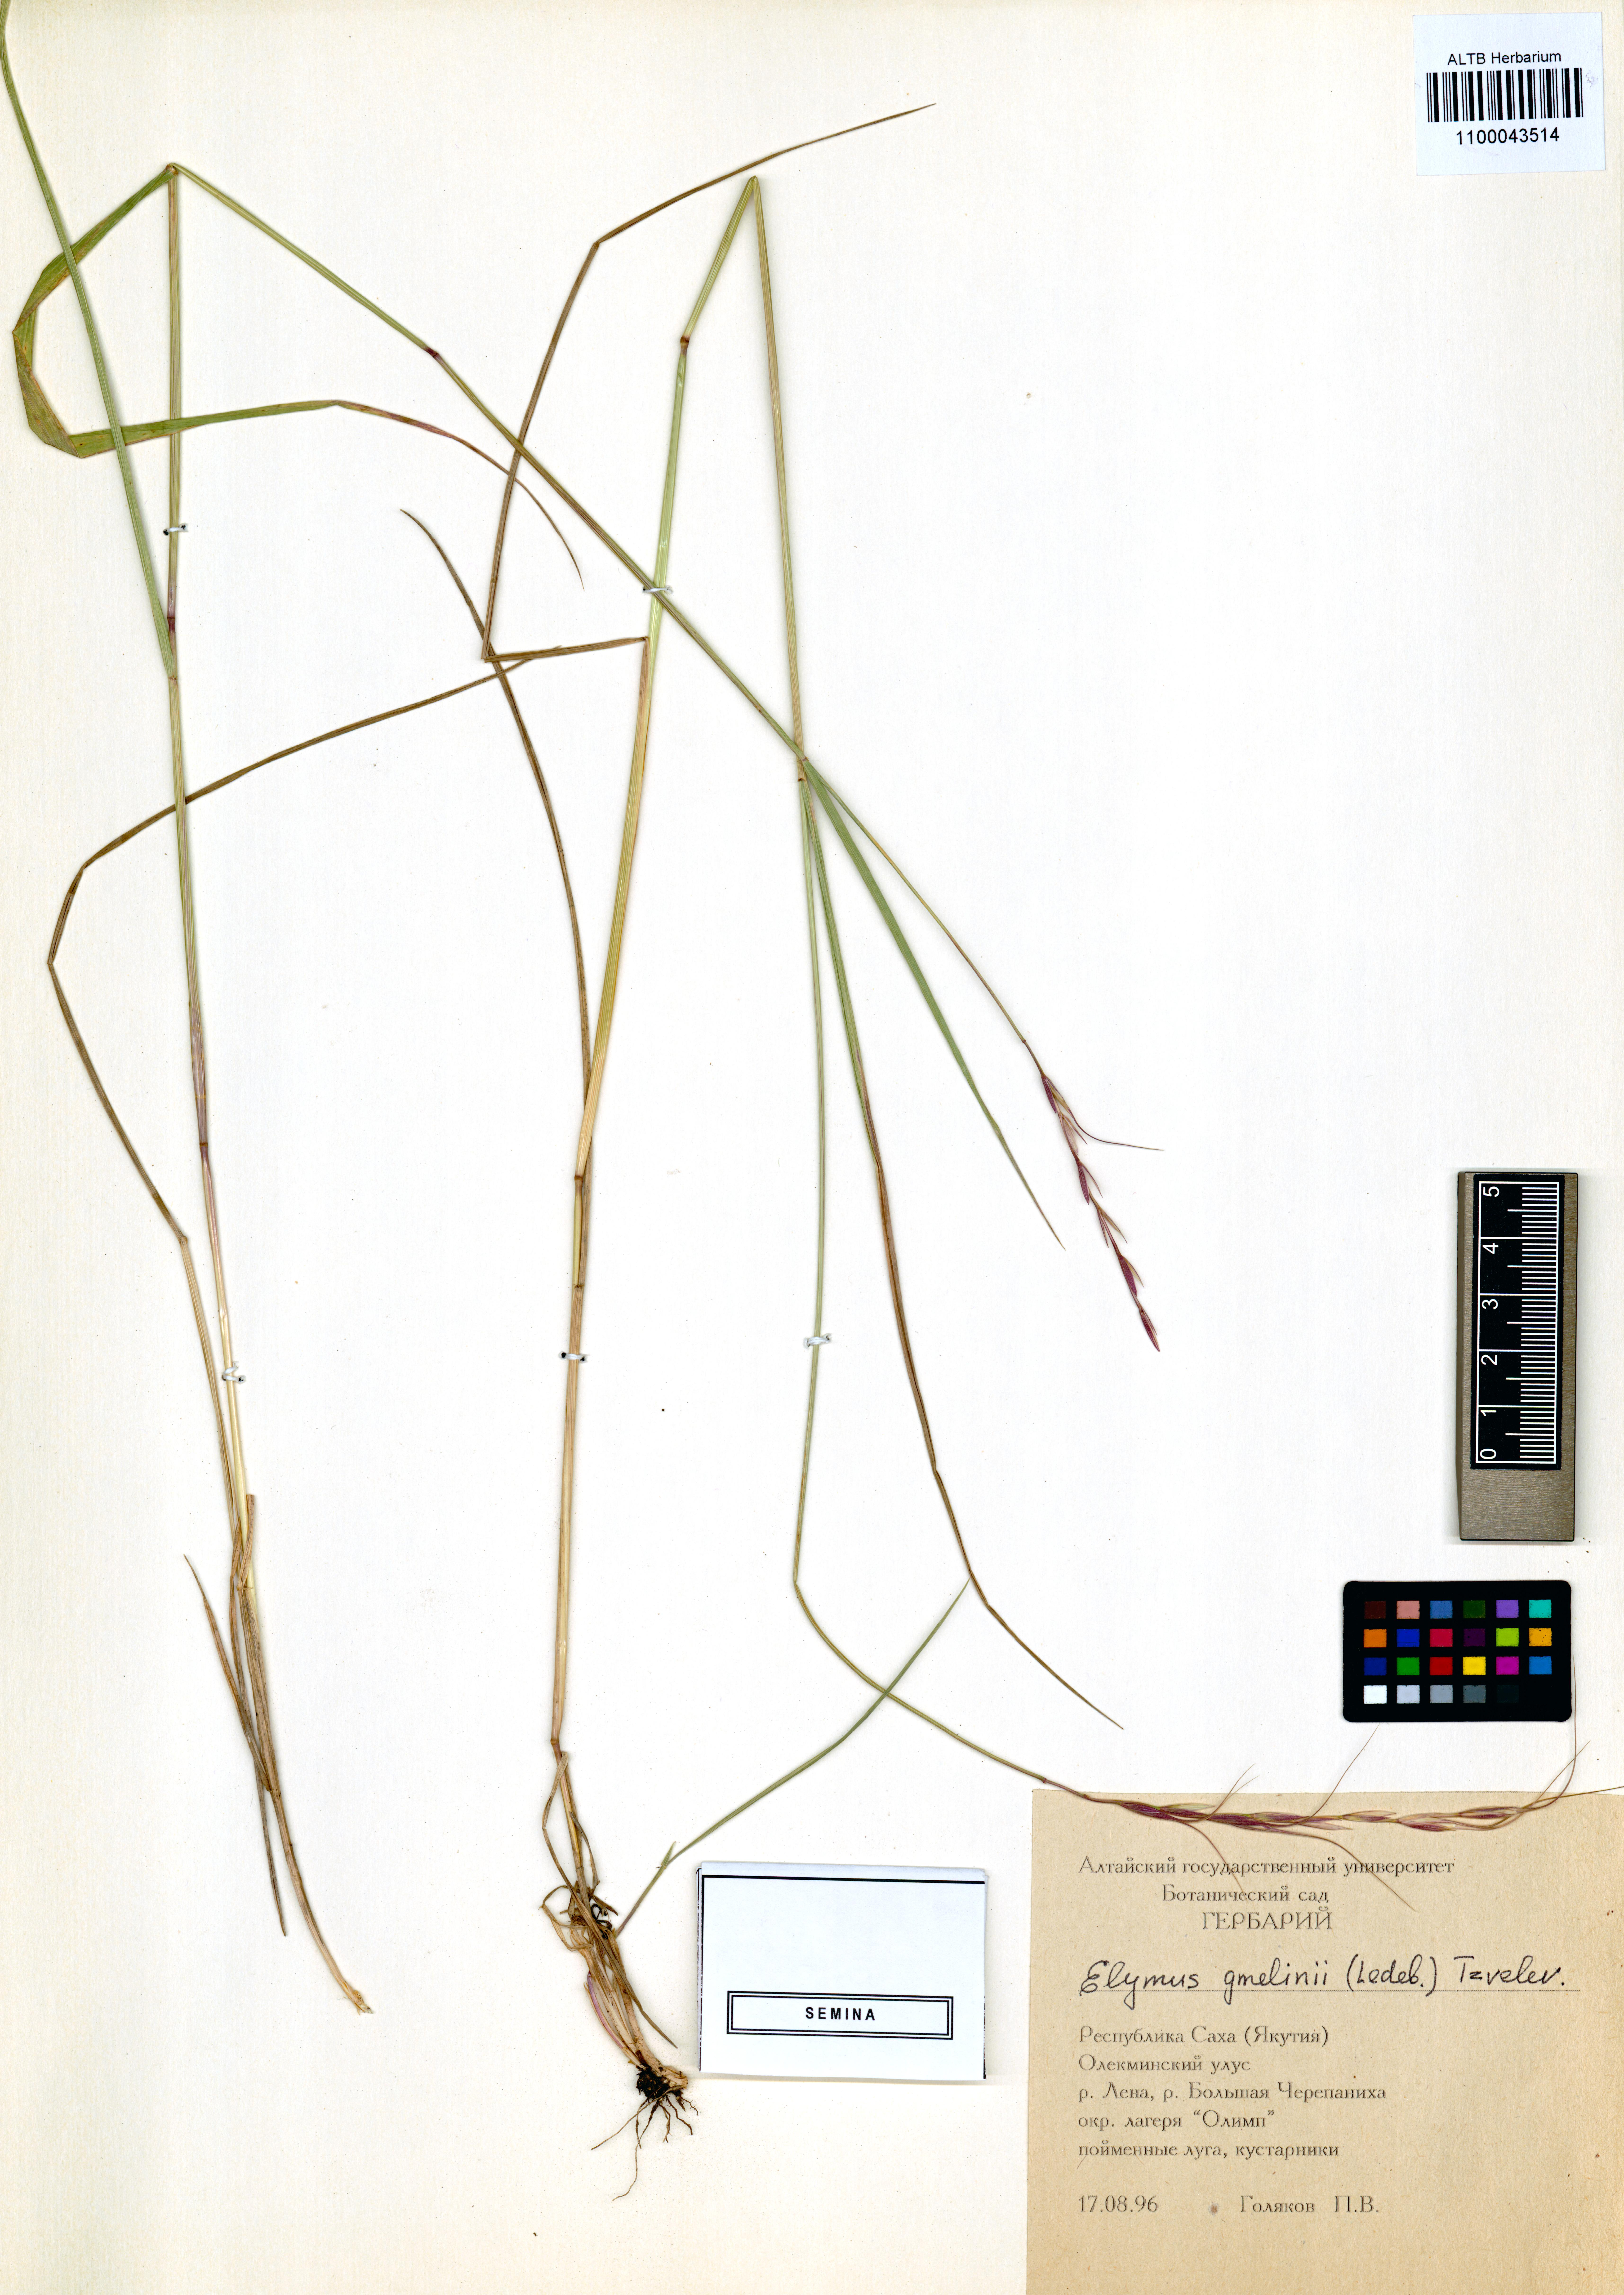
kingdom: Plantae
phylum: Tracheophyta
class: Liliopsida
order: Poales
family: Poaceae
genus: Elymus
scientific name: Elymus gmelinii
